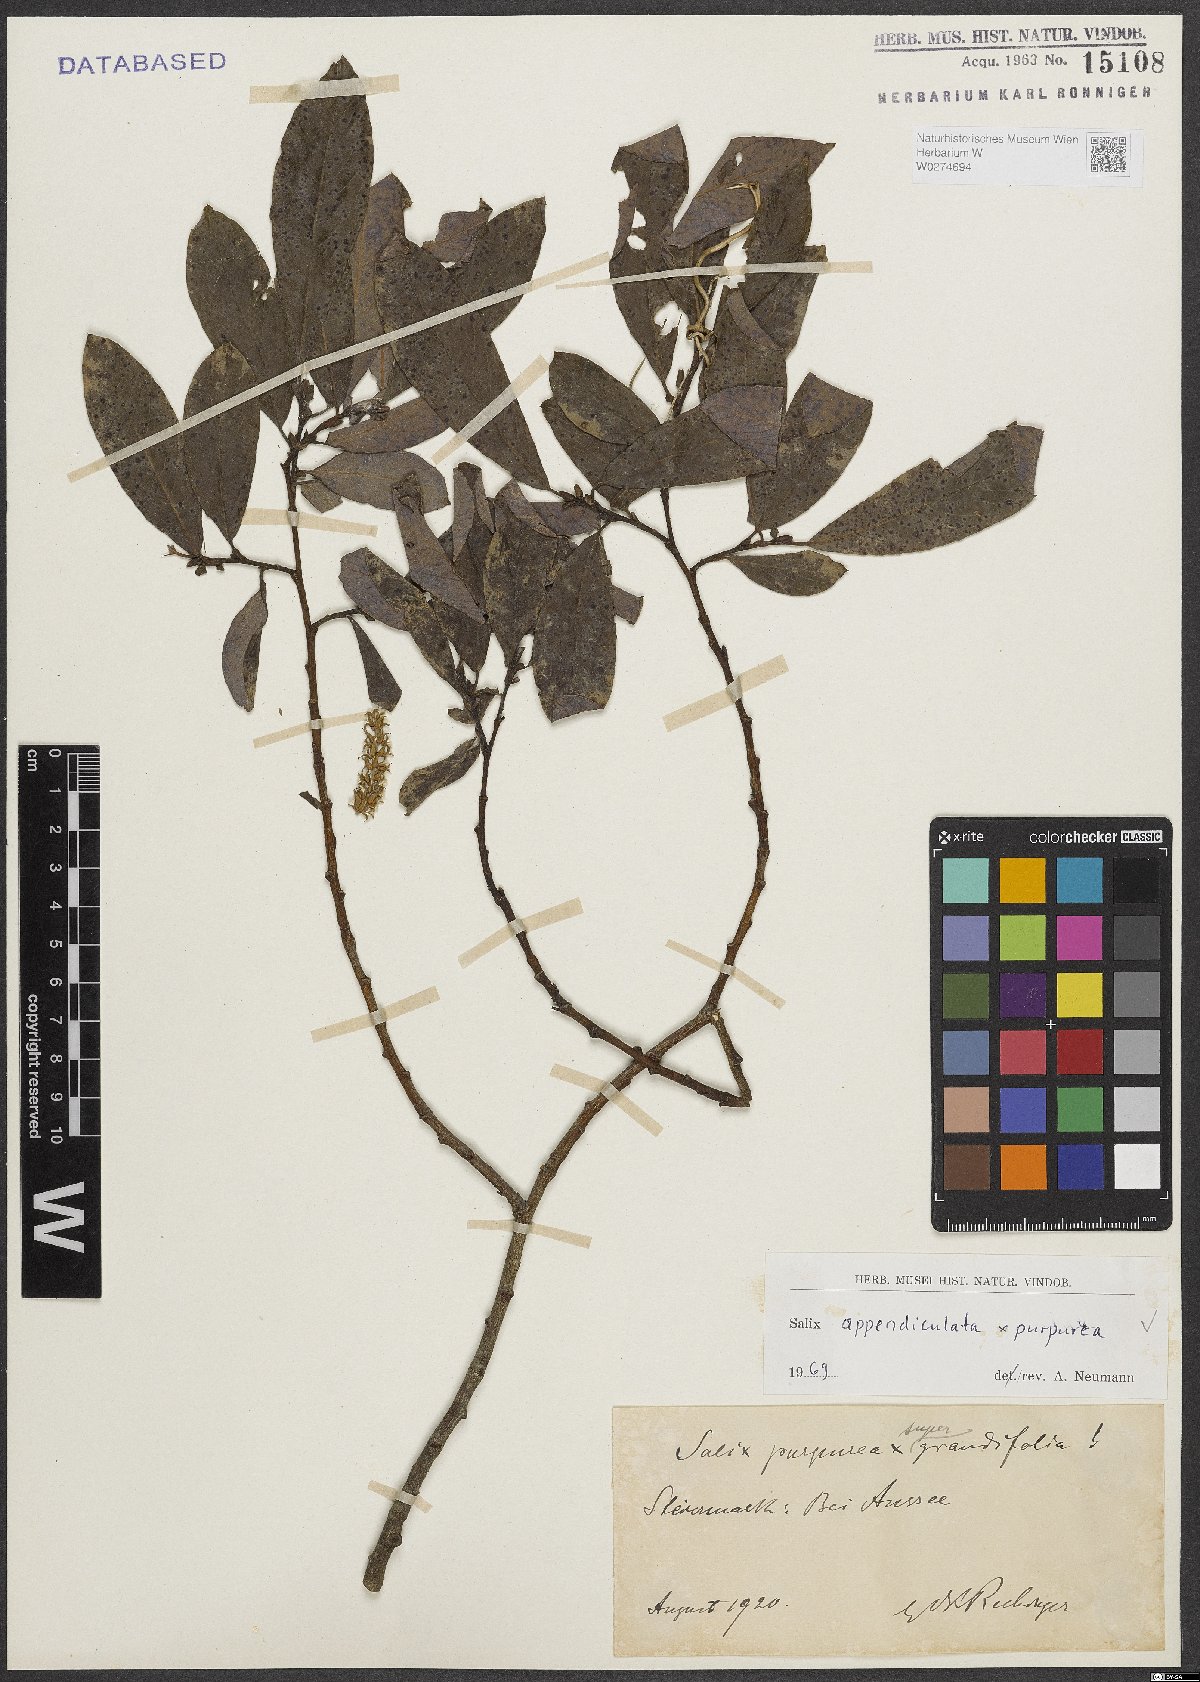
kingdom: Plantae
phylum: Tracheophyta
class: Magnoliopsida
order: Malpighiales
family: Salicaceae
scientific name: Salicaceae
